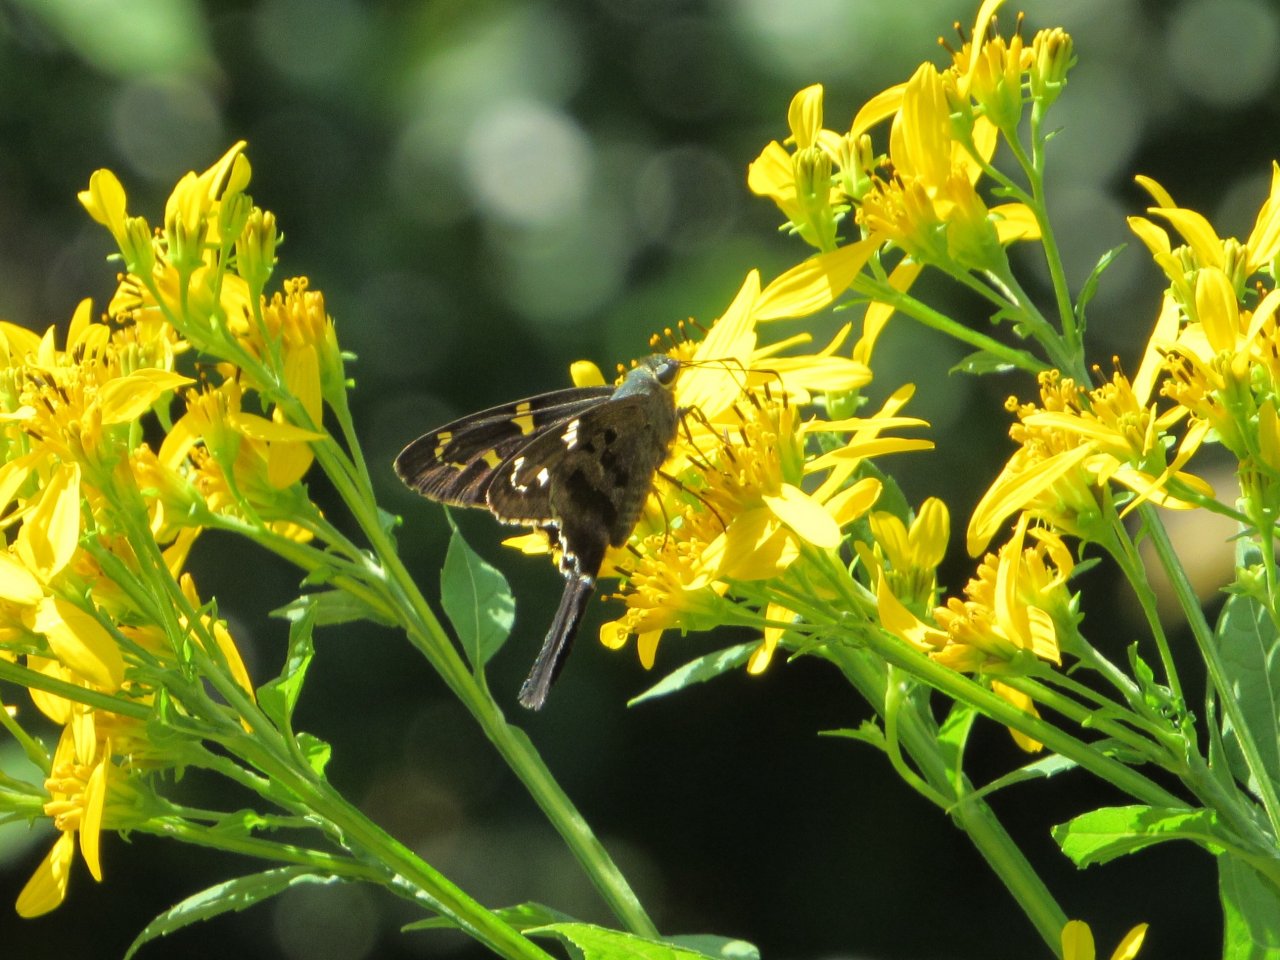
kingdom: Animalia
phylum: Arthropoda
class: Insecta
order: Lepidoptera
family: Hesperiidae
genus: Urbanus
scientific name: Urbanus proteus
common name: Long-tailed Skipper
